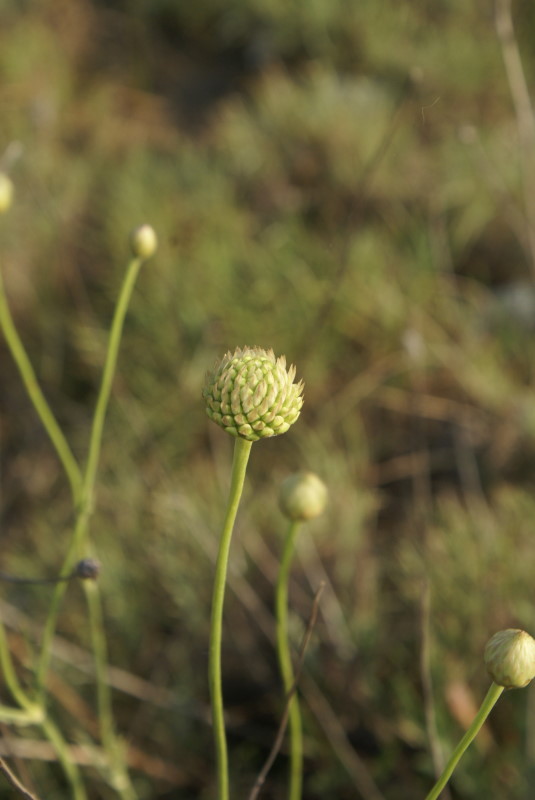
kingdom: Plantae
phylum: Tracheophyta
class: Liliopsida
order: Asparagales
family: Amaryllidaceae
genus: Allium
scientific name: Allium rotundum
